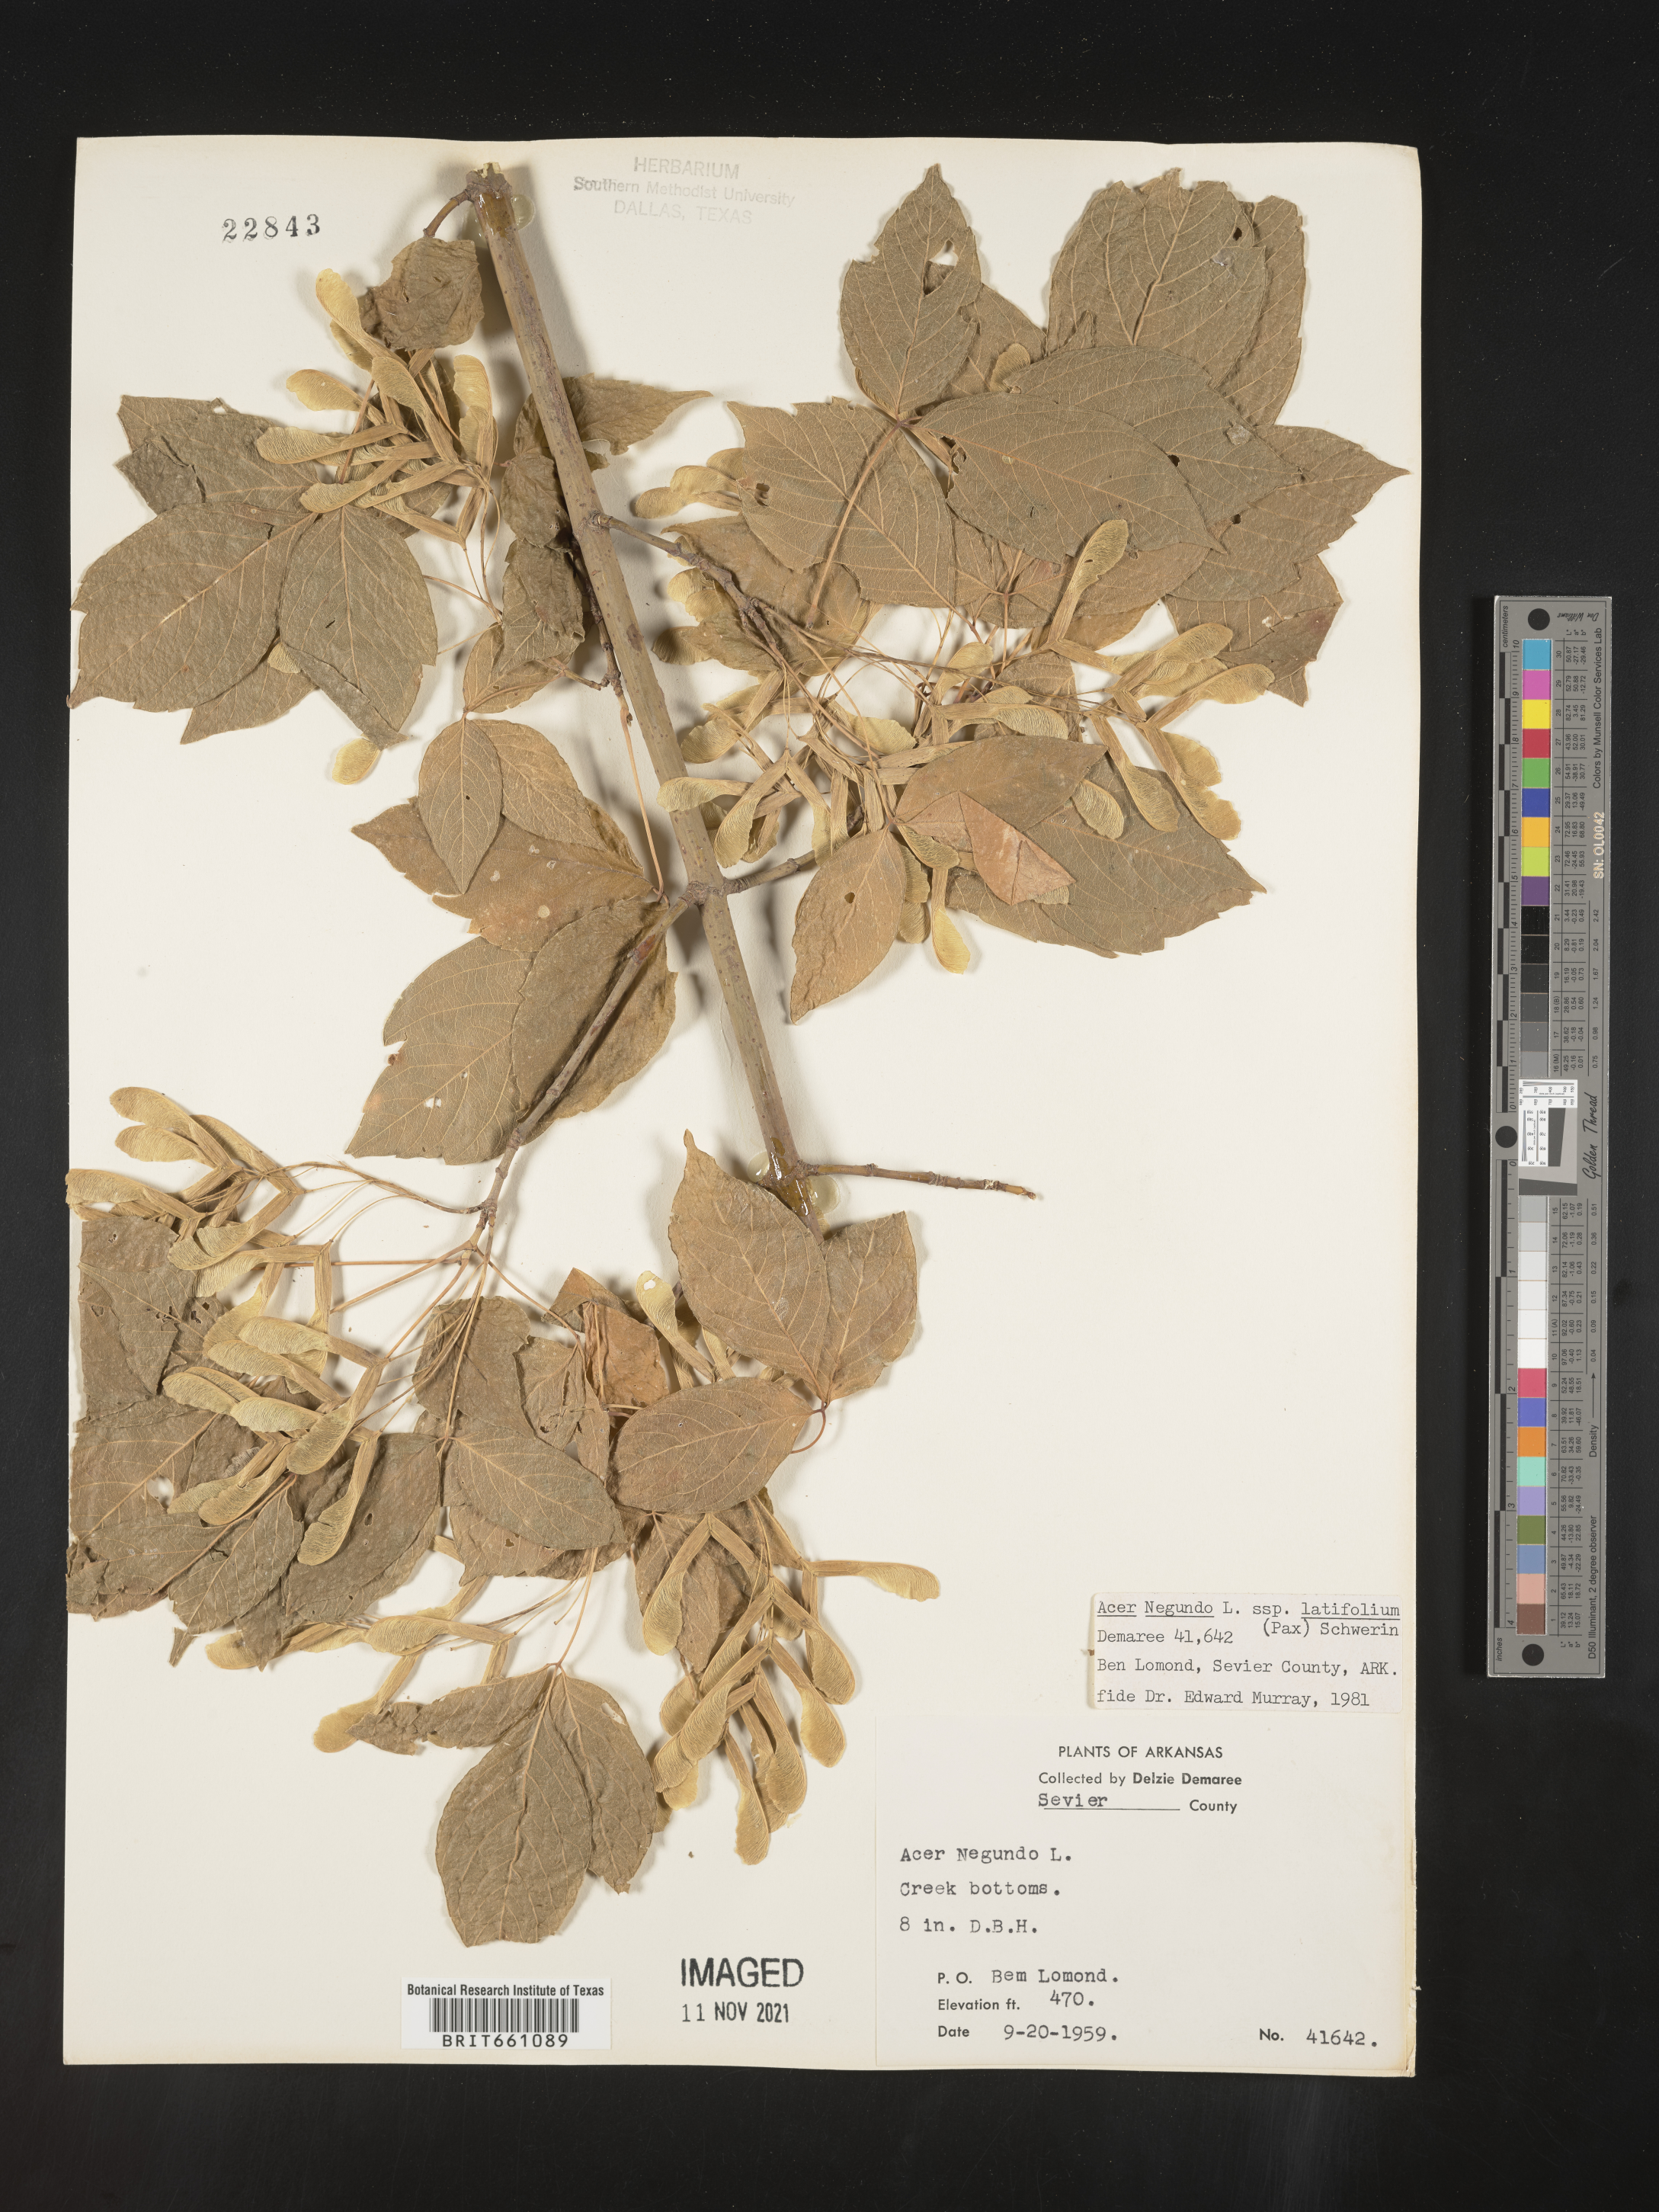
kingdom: Plantae
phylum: Tracheophyta
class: Magnoliopsida
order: Sapindales
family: Sapindaceae
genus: Acer
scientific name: Acer negundo
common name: Ashleaf maple
